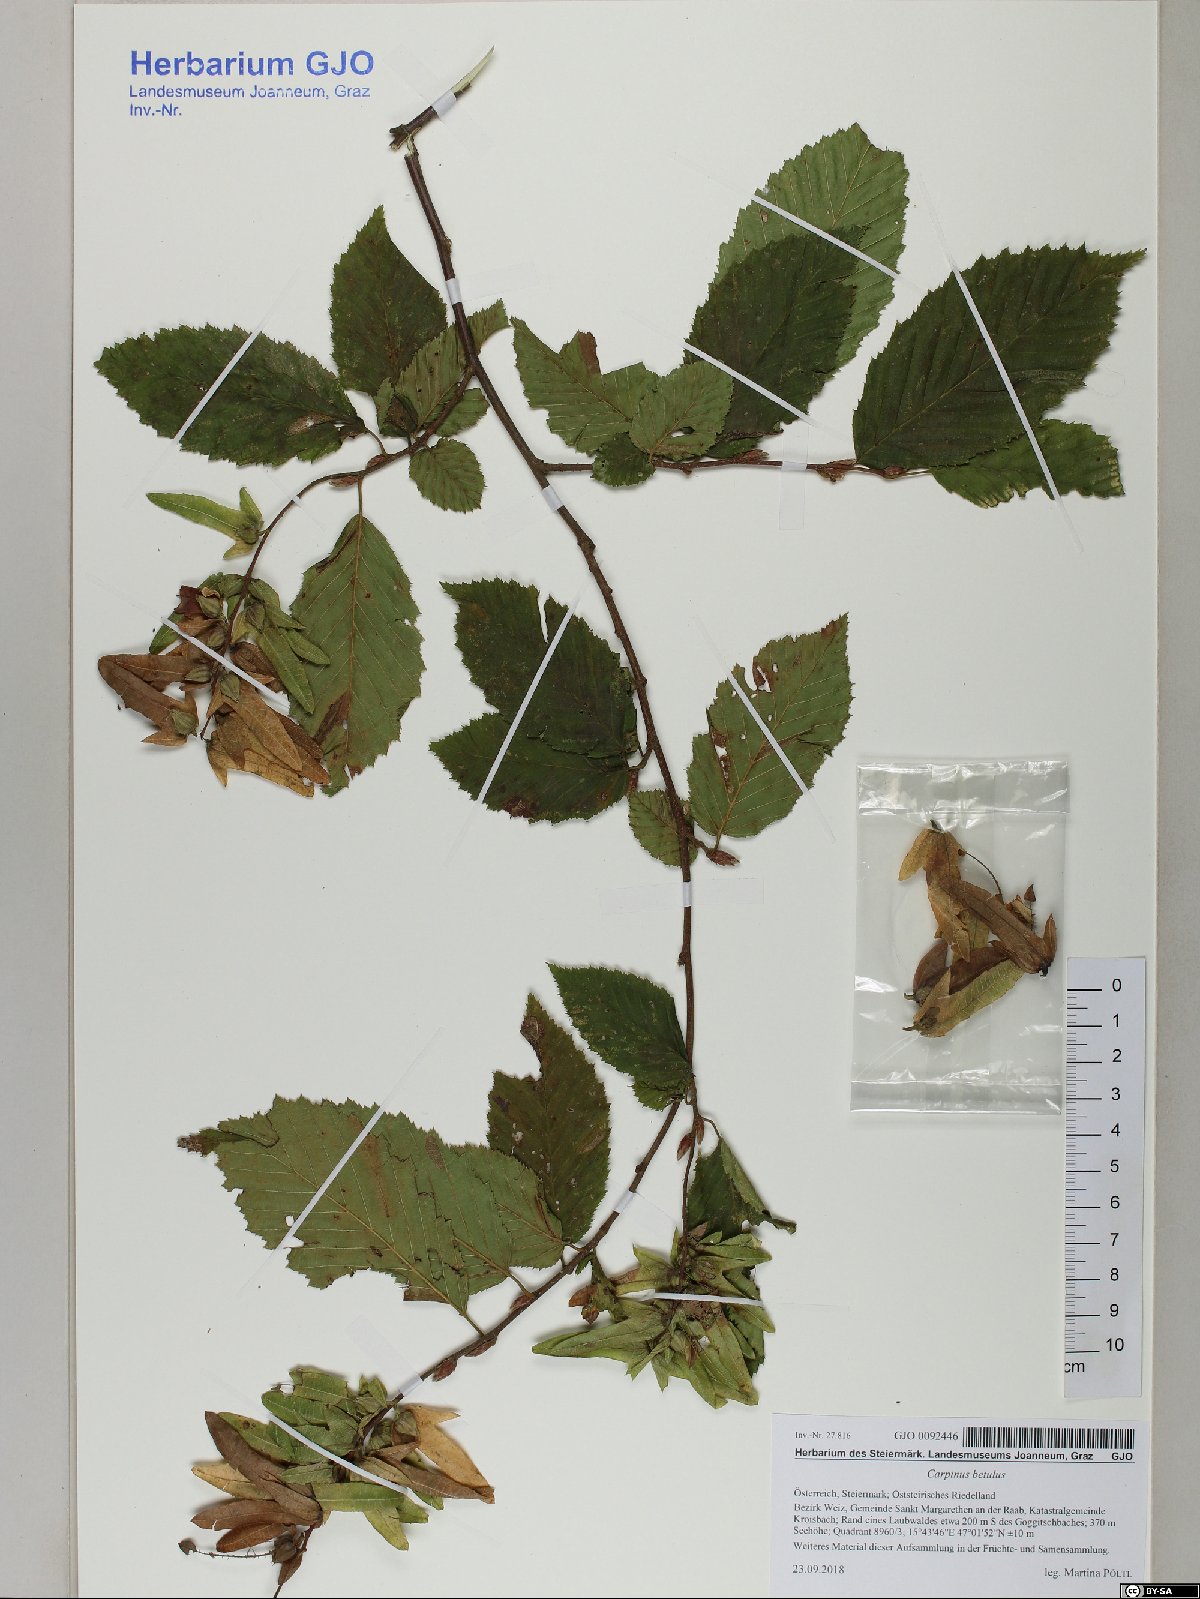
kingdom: Plantae
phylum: Tracheophyta
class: Magnoliopsida
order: Fagales
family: Betulaceae
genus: Carpinus
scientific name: Carpinus betulus
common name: Hornbeam
